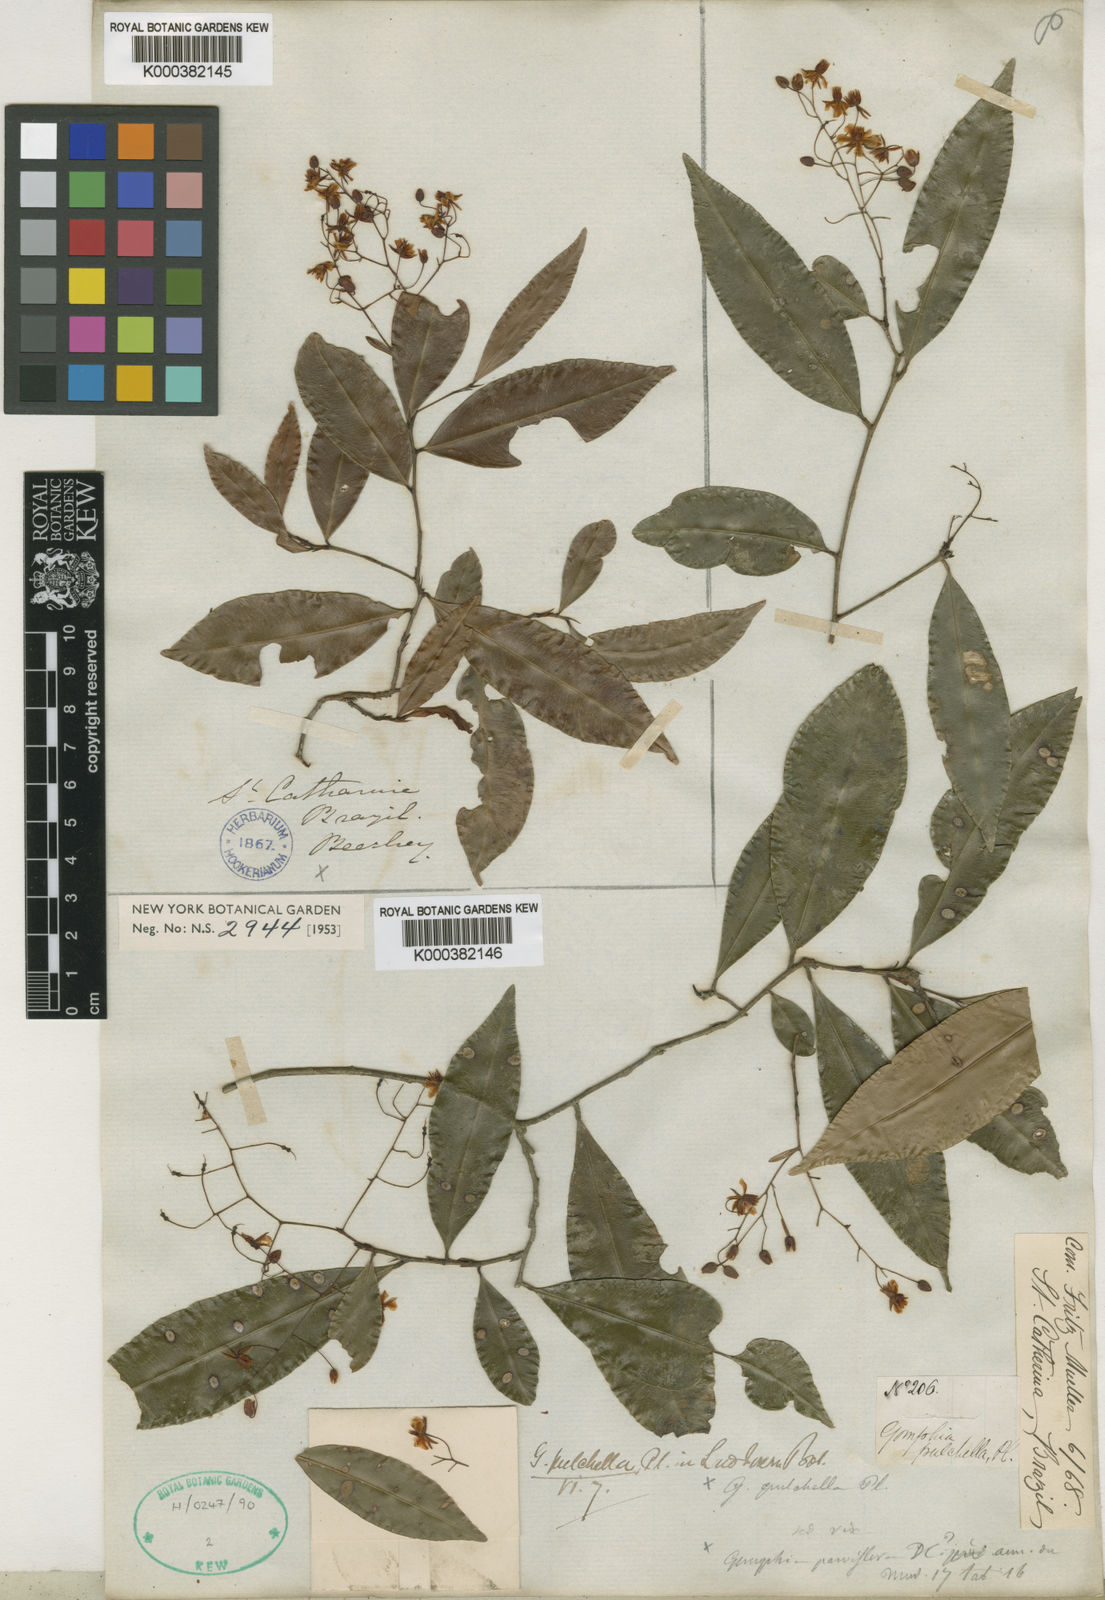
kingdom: Plantae
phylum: Tracheophyta
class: Magnoliopsida
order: Malpighiales
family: Ochnaceae
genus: Ouratea
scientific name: Ouratea pulchella
